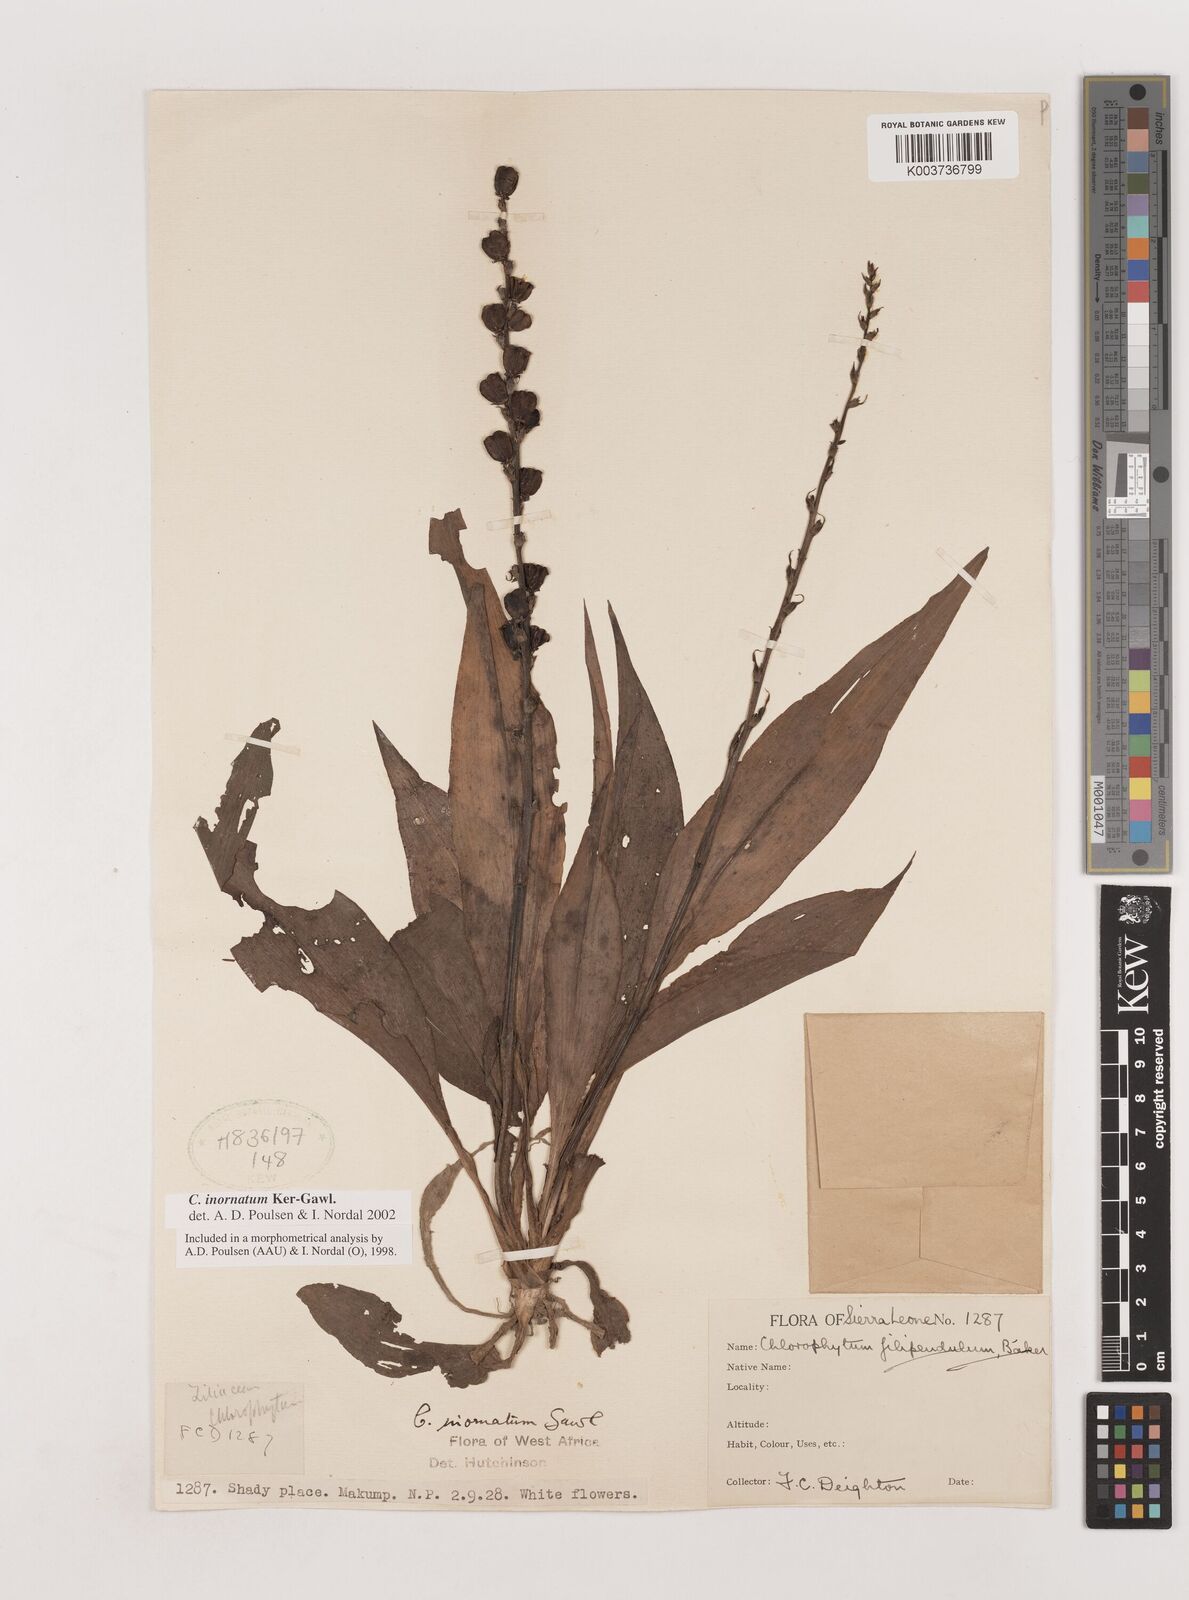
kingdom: Plantae
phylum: Tracheophyta
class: Liliopsida
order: Asparagales
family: Asparagaceae
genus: Chlorophytum
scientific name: Chlorophytum inornatum
